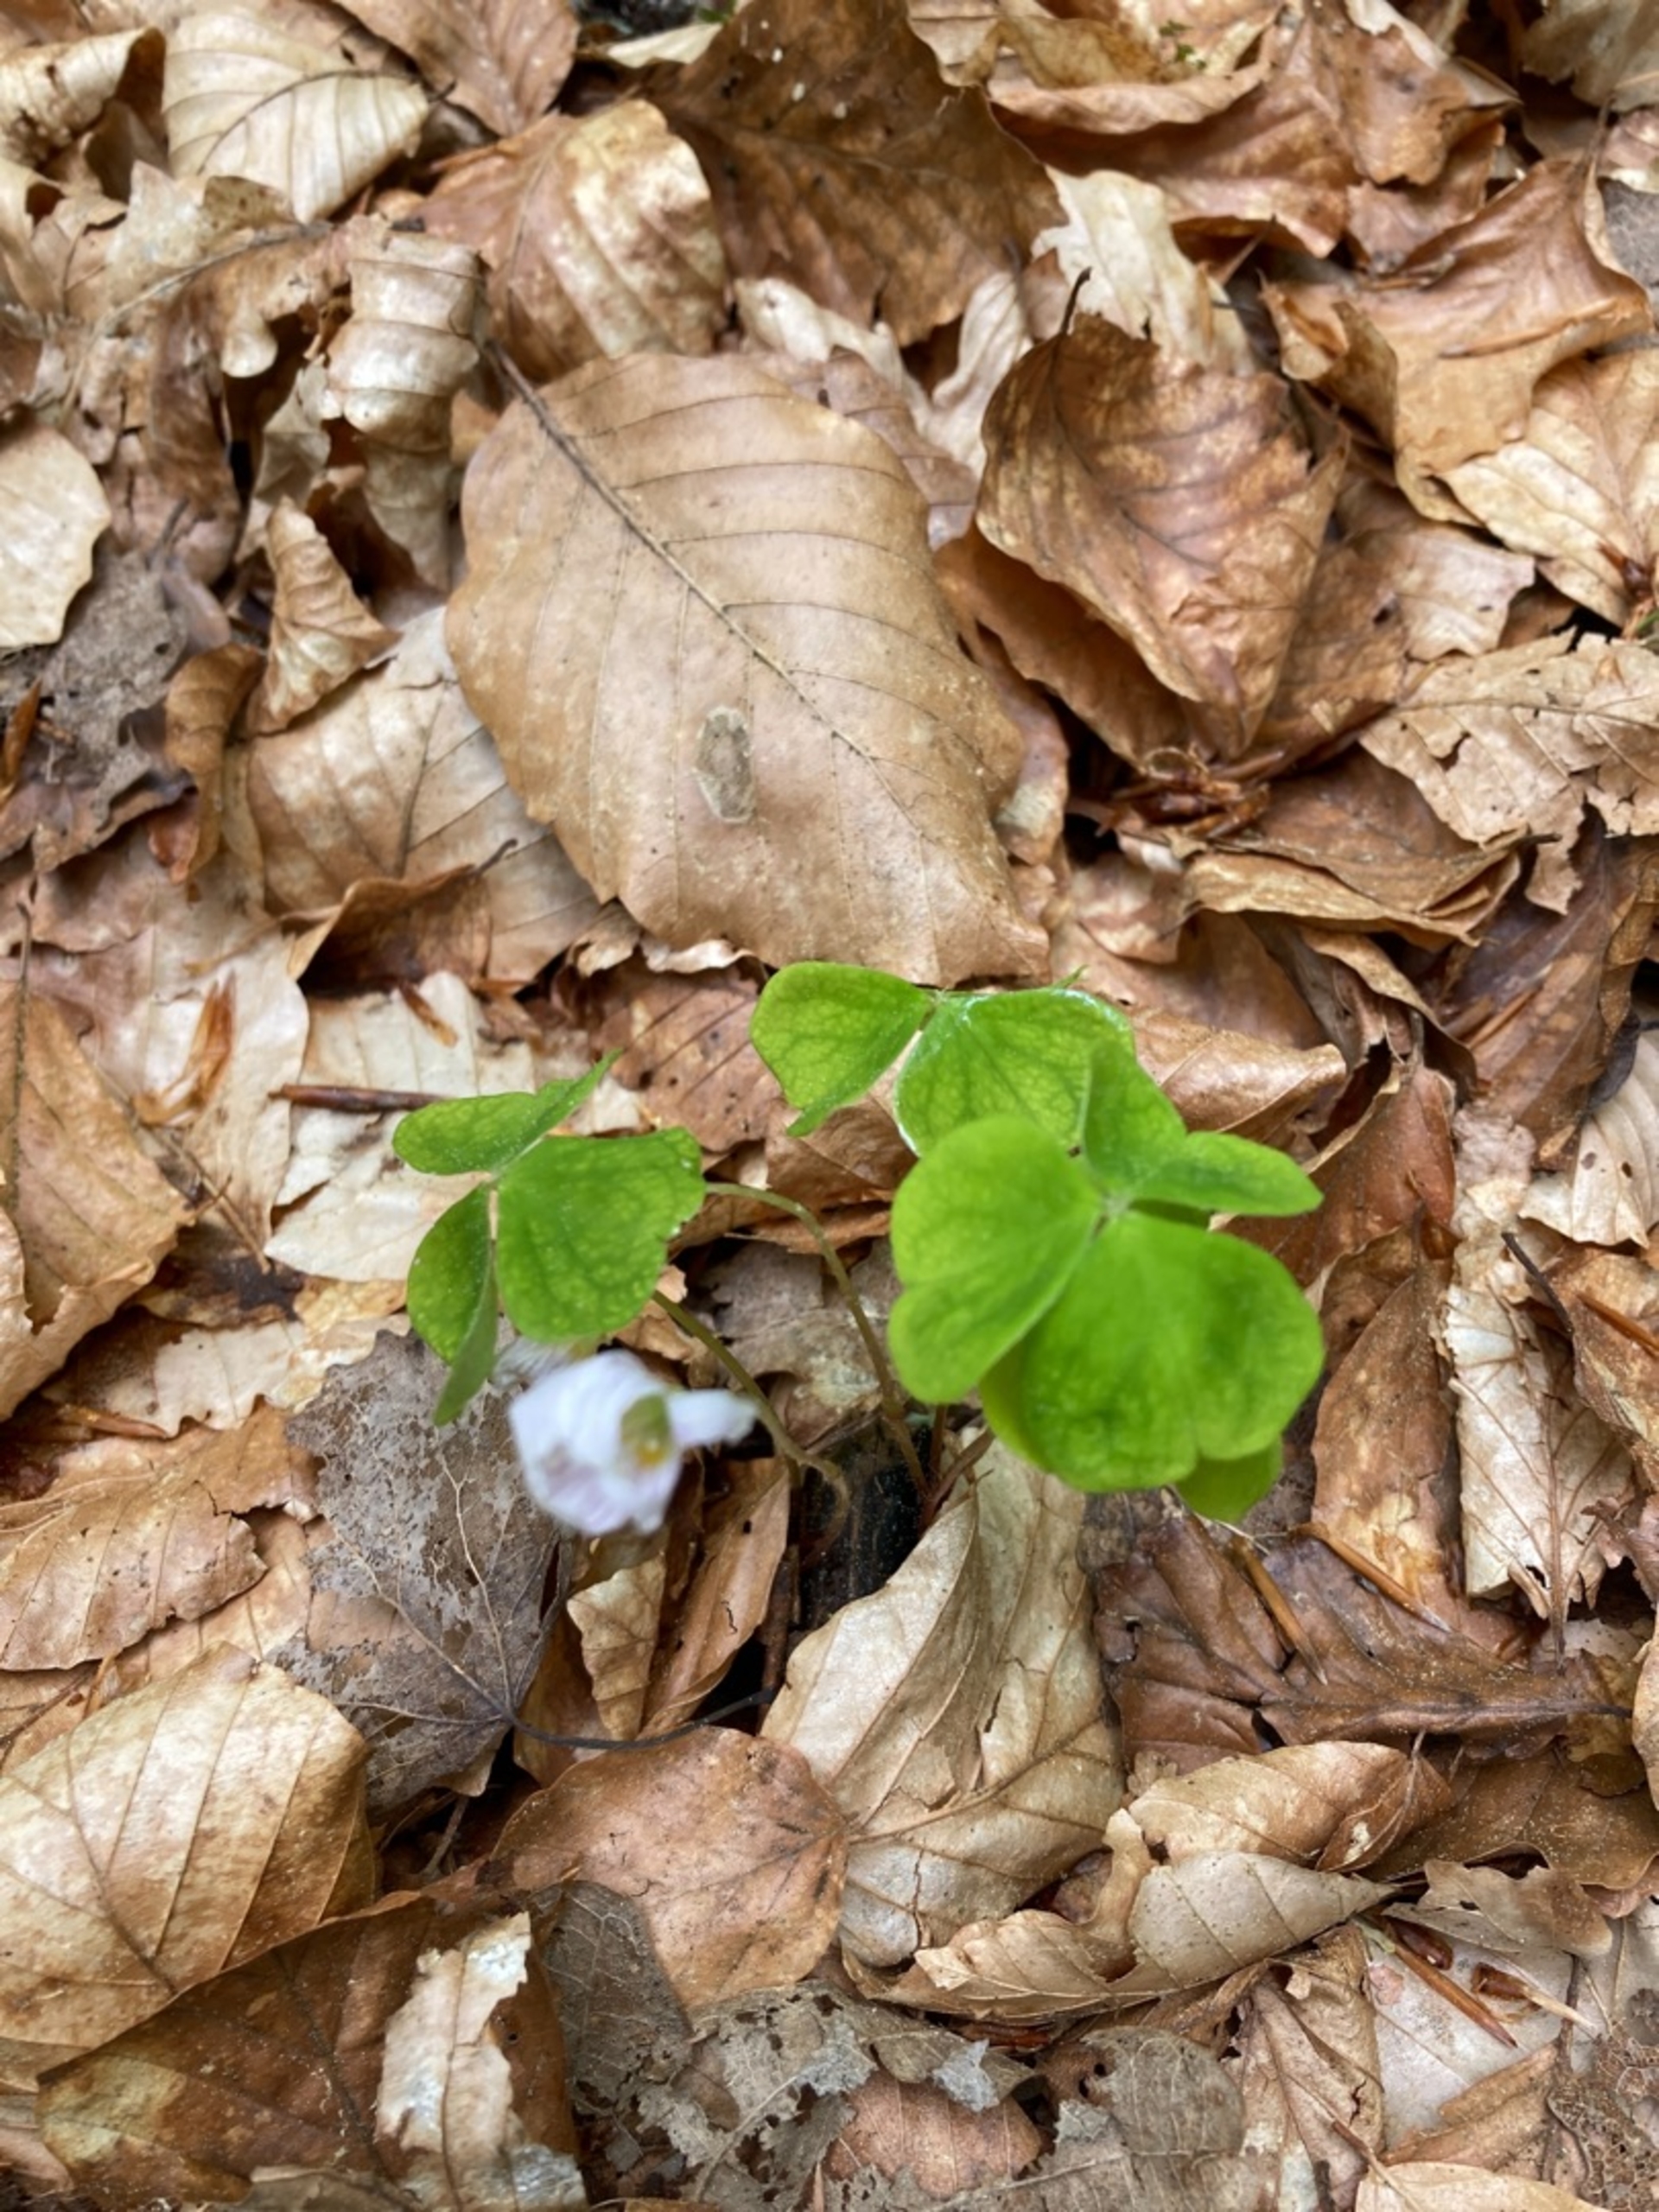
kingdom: Plantae
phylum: Tracheophyta
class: Magnoliopsida
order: Oxalidales
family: Oxalidaceae
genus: Oxalis
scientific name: Oxalis acetosella
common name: Skovsyre
